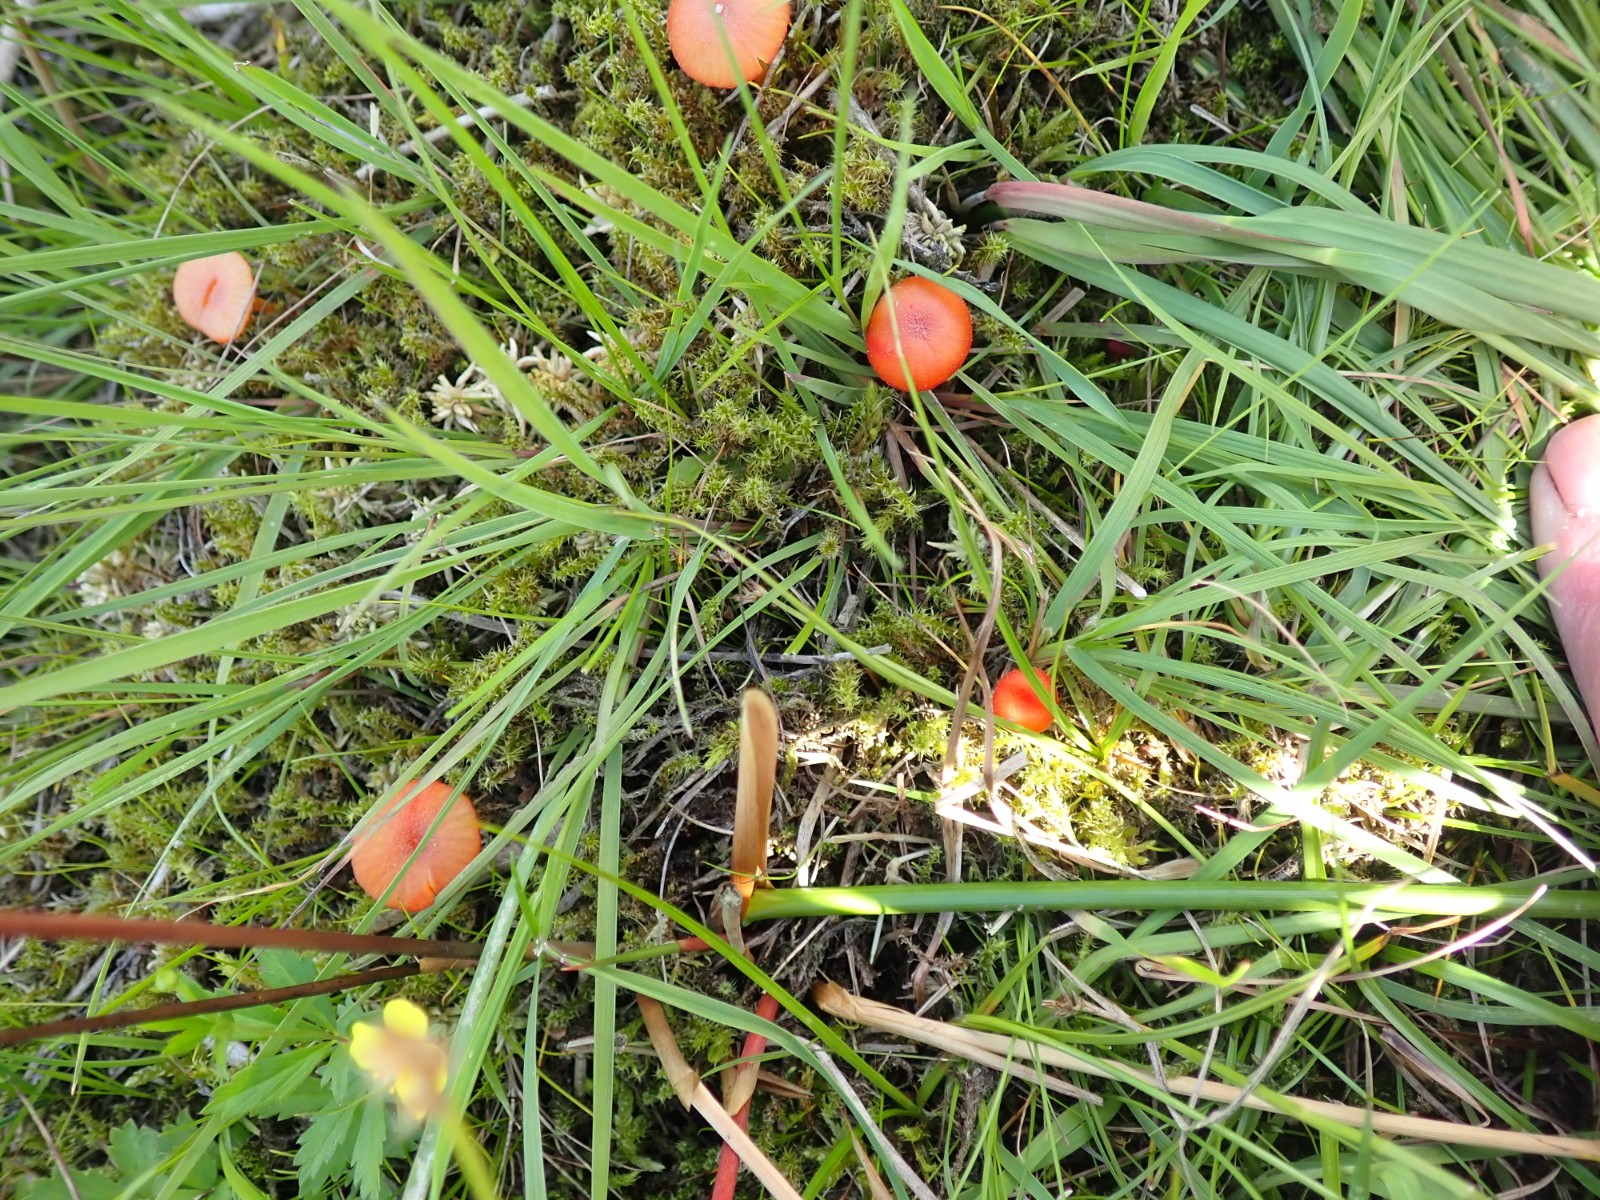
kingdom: Fungi
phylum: Basidiomycota
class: Agaricomycetes
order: Agaricales
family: Hygrophoraceae
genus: Hygrocybe
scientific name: Hygrocybe helobia
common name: hvidløgs-vokshat
